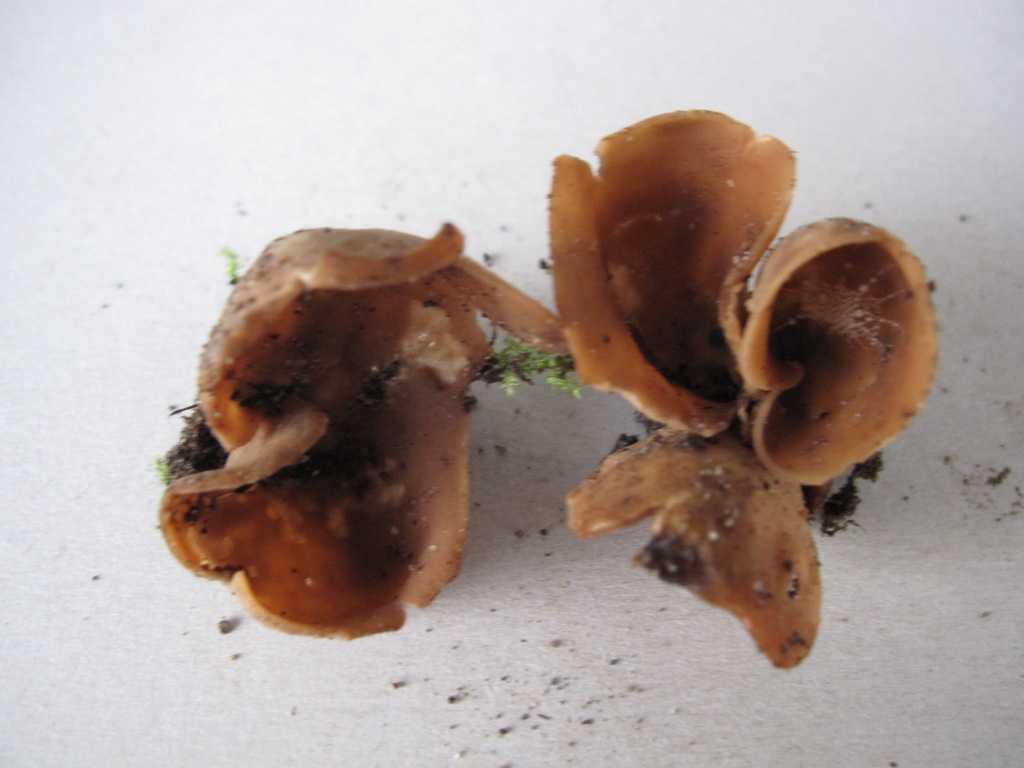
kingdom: Fungi
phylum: Ascomycota
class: Pezizomycetes
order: Pezizales
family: Otideaceae
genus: Otidea
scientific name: Otidea alutacea
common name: læder-ørebæger
